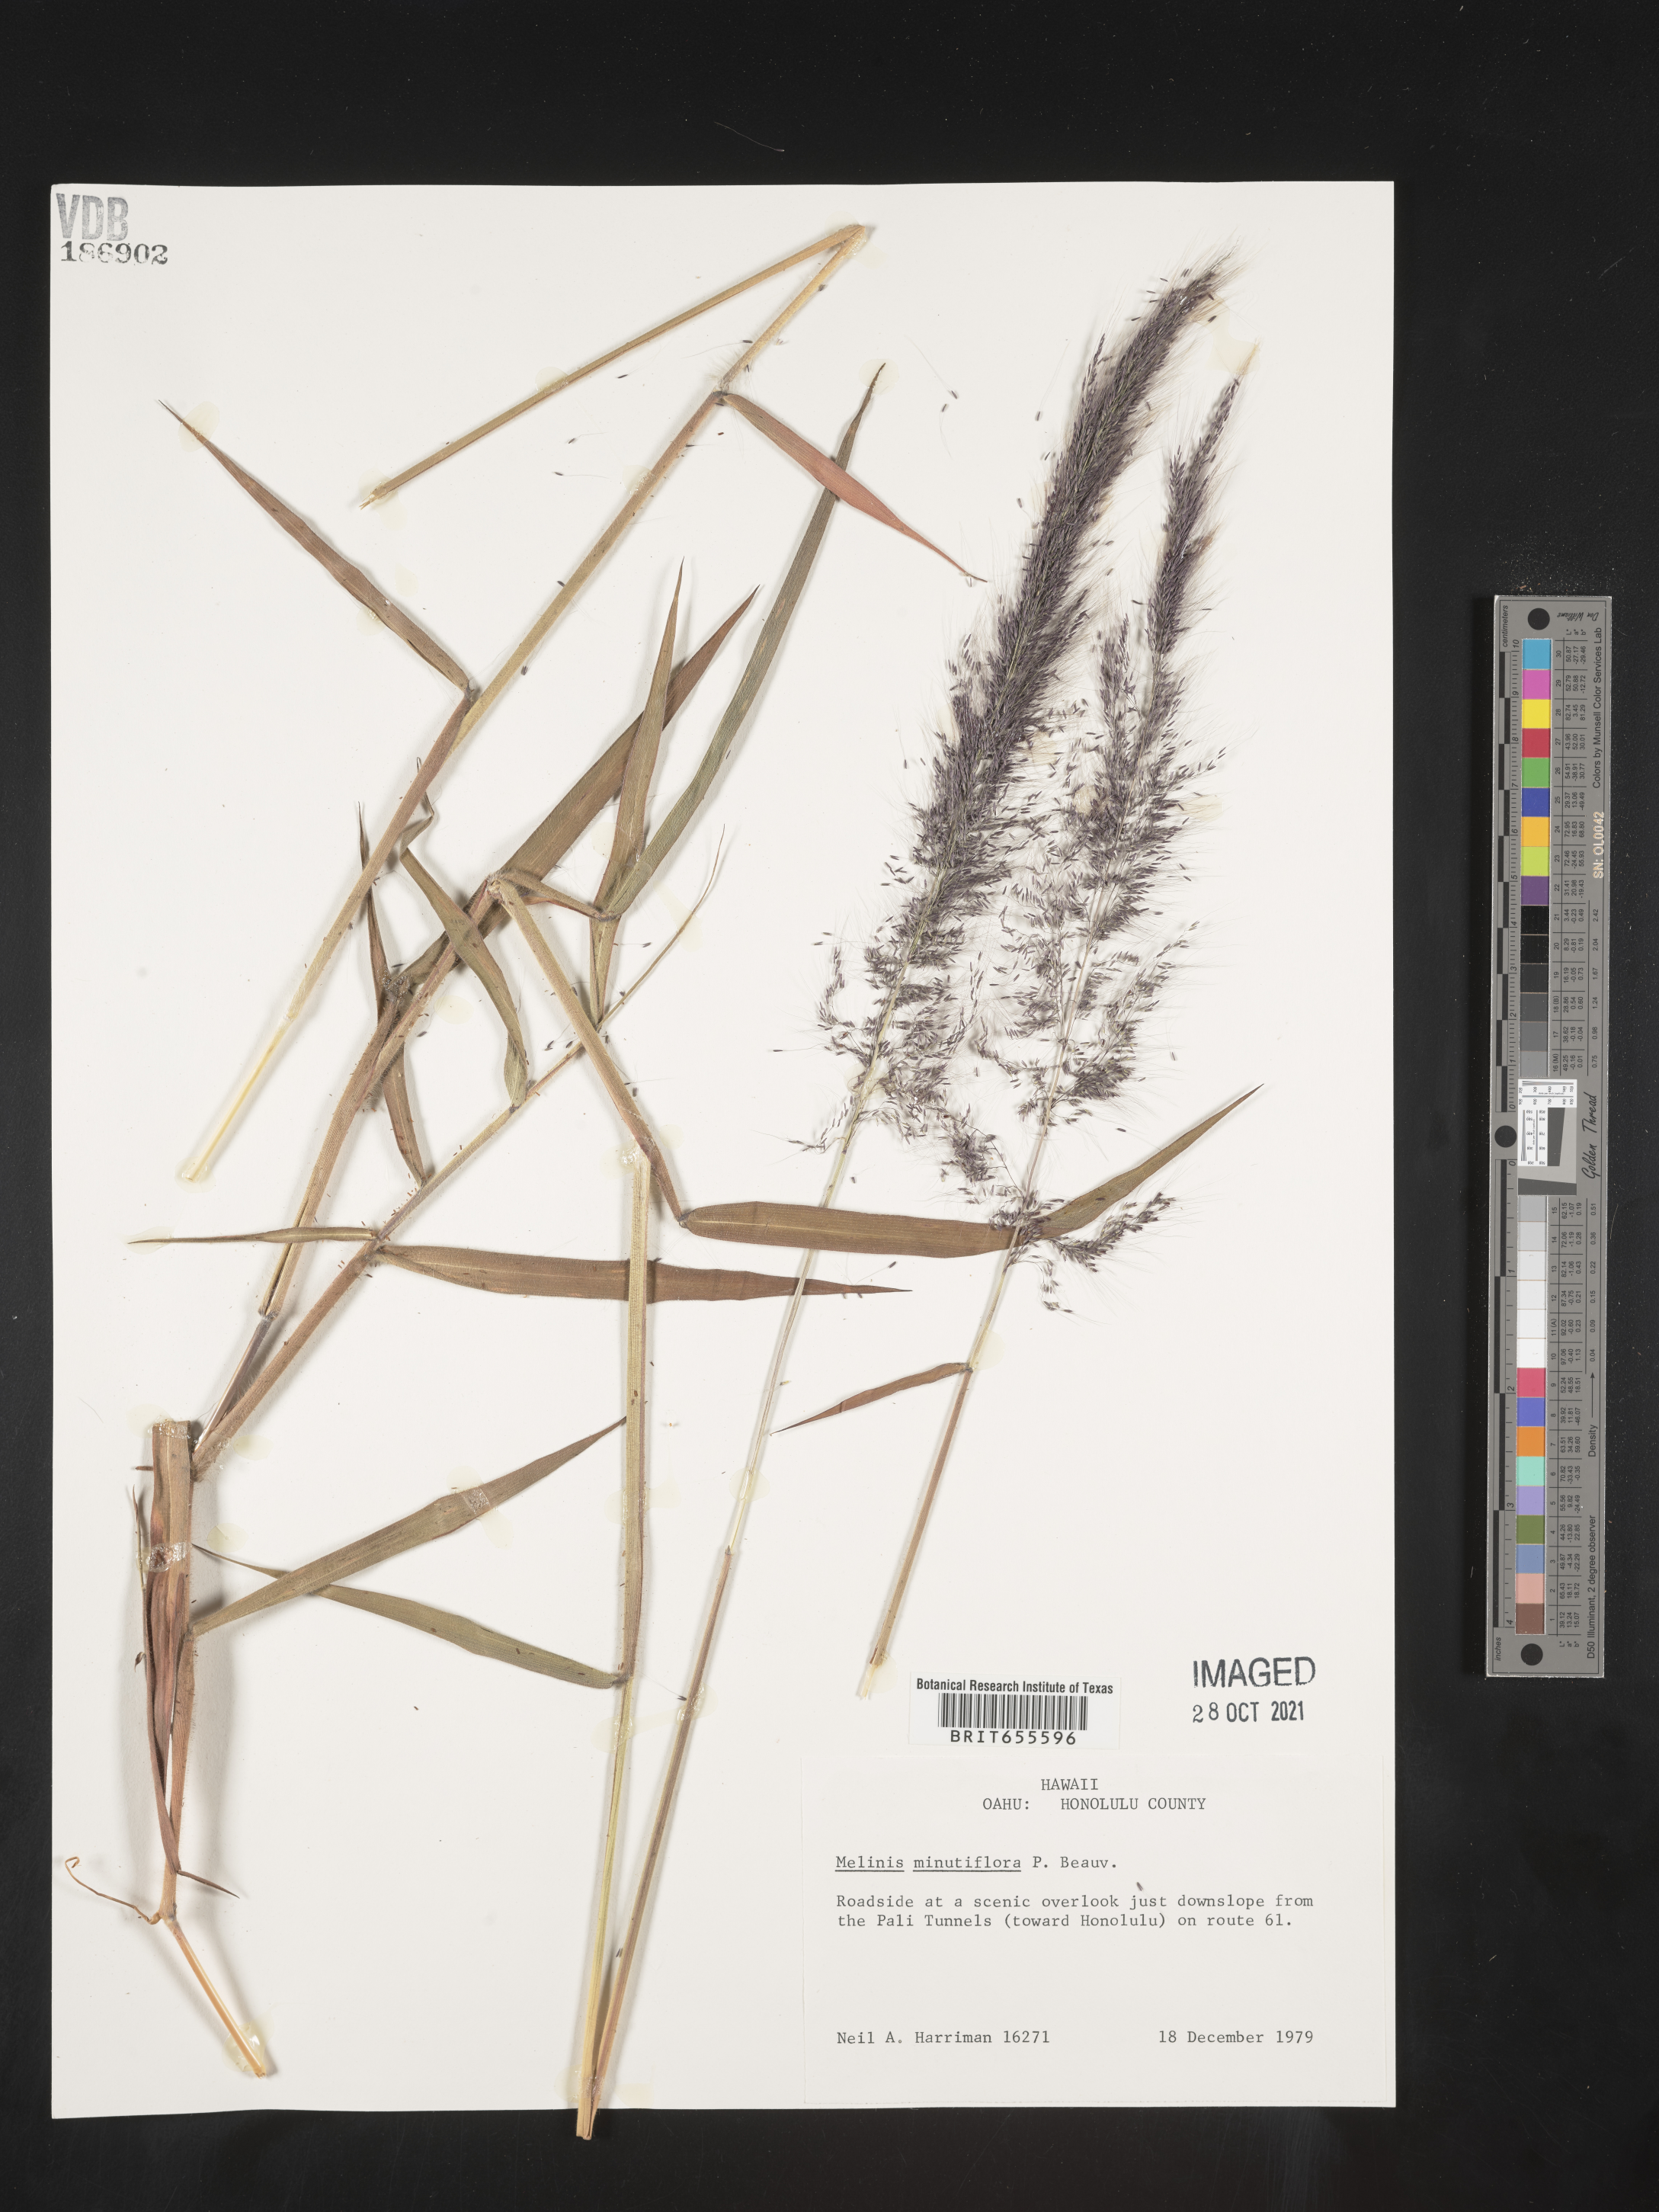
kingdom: Plantae
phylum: Tracheophyta
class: Liliopsida
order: Poales
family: Poaceae
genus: Melinis
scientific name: Melinis
